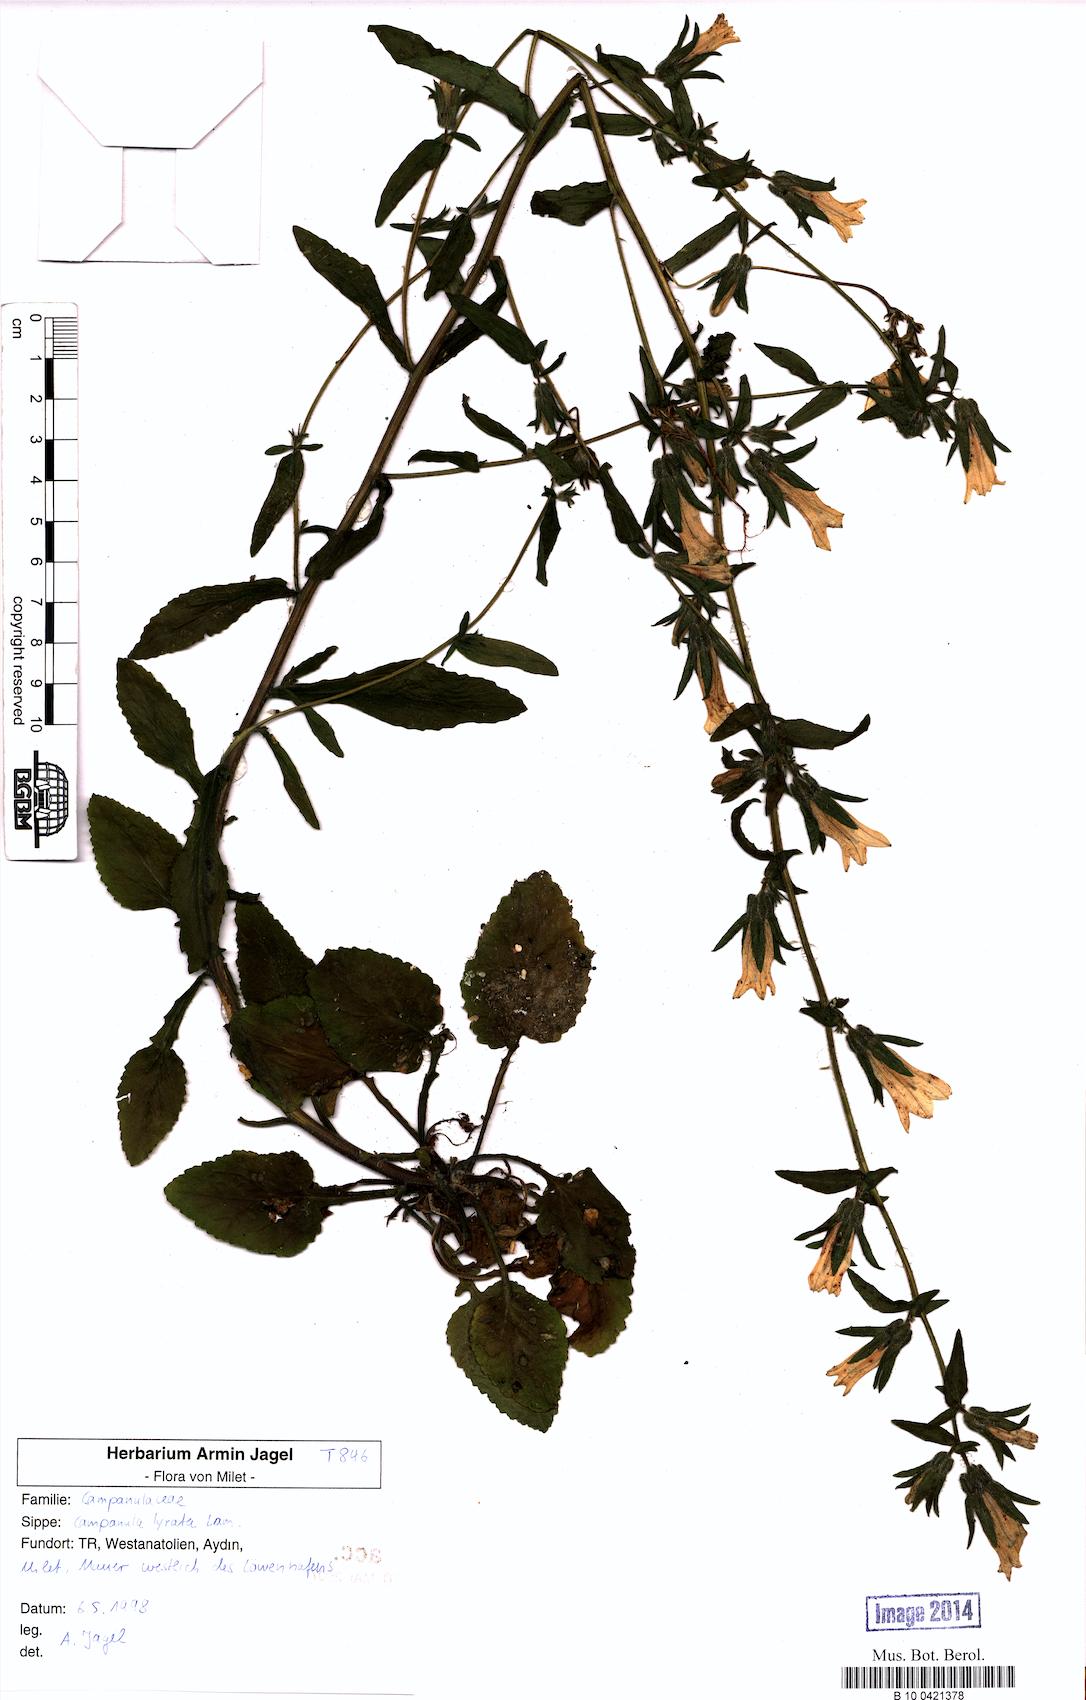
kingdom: Plantae
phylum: Tracheophyta
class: Magnoliopsida
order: Asterales
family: Campanulaceae
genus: Campanula
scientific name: Campanula lyrata
